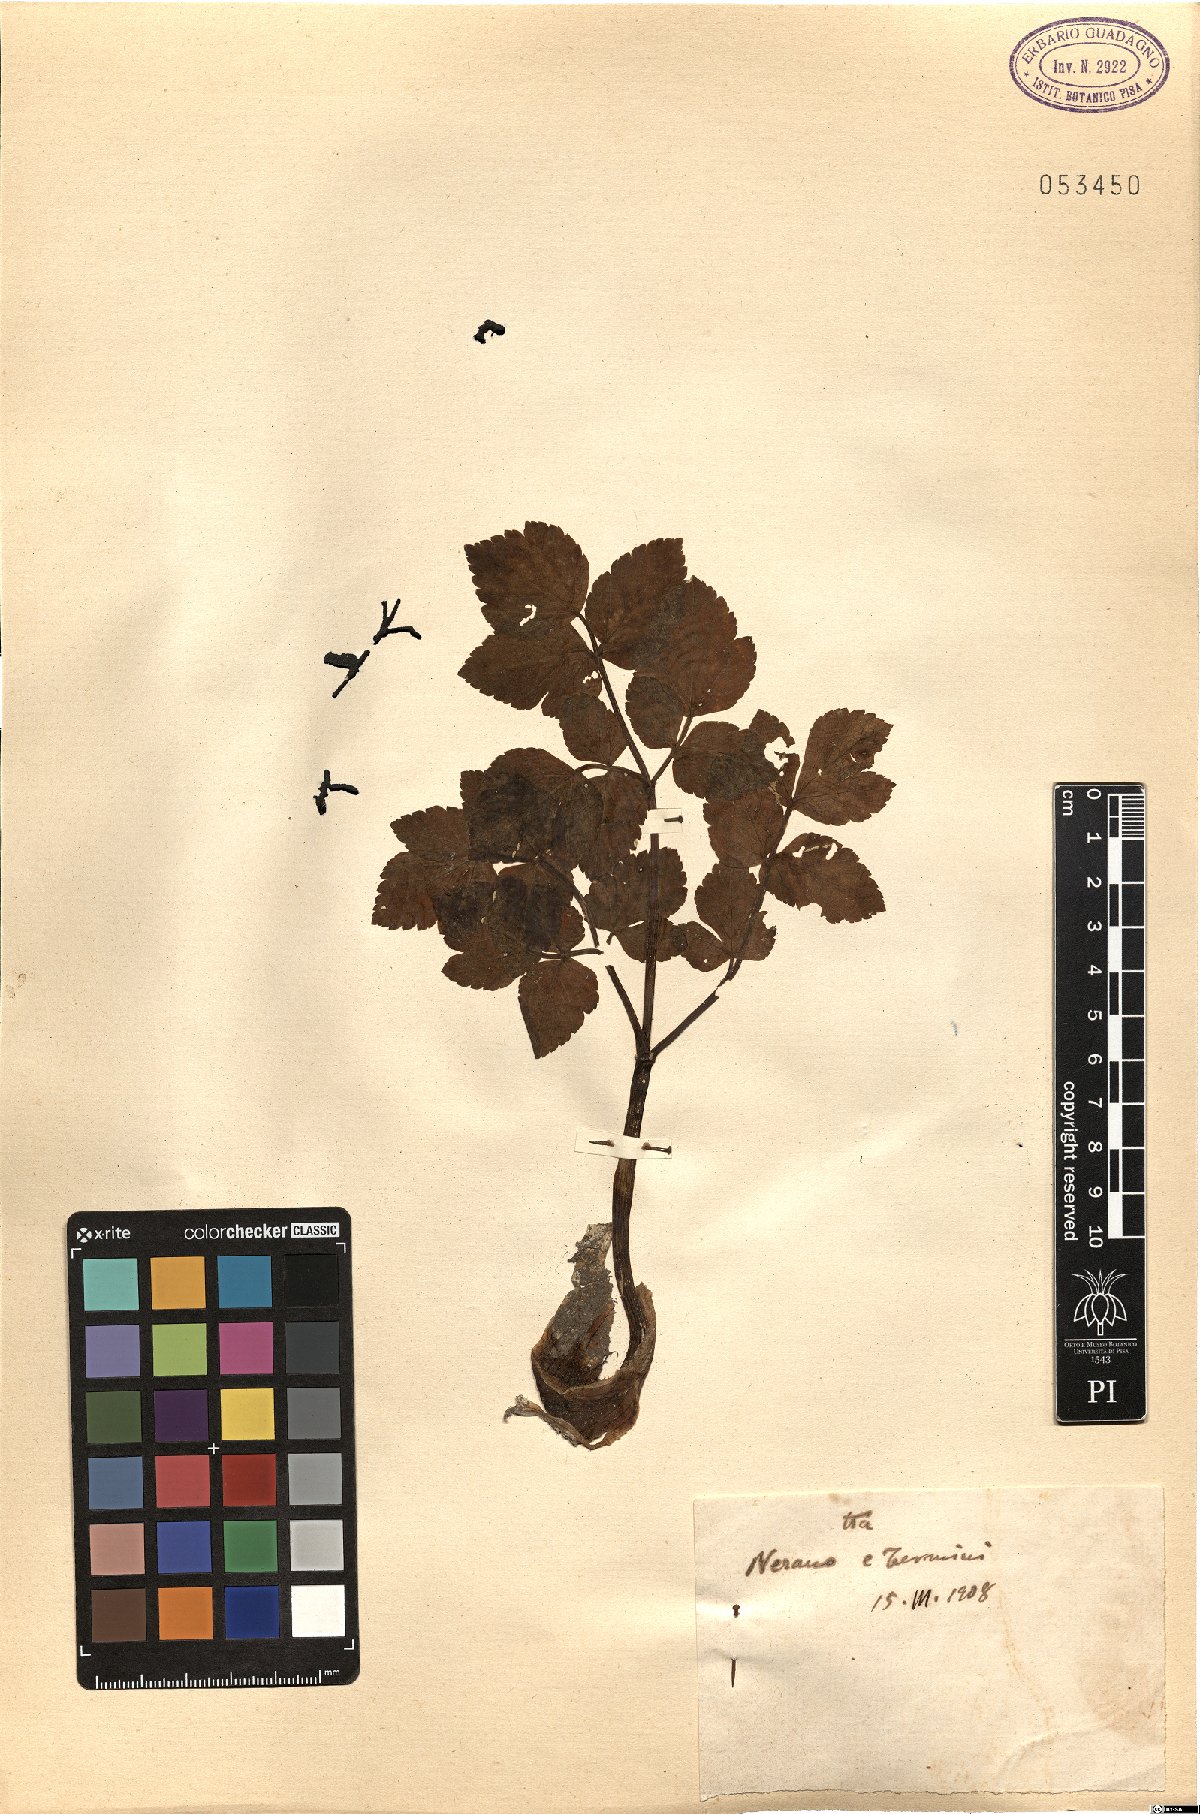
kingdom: Plantae
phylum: Tracheophyta
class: Magnoliopsida
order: Apiales
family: Apiaceae
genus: Smyrnium
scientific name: Smyrnium
